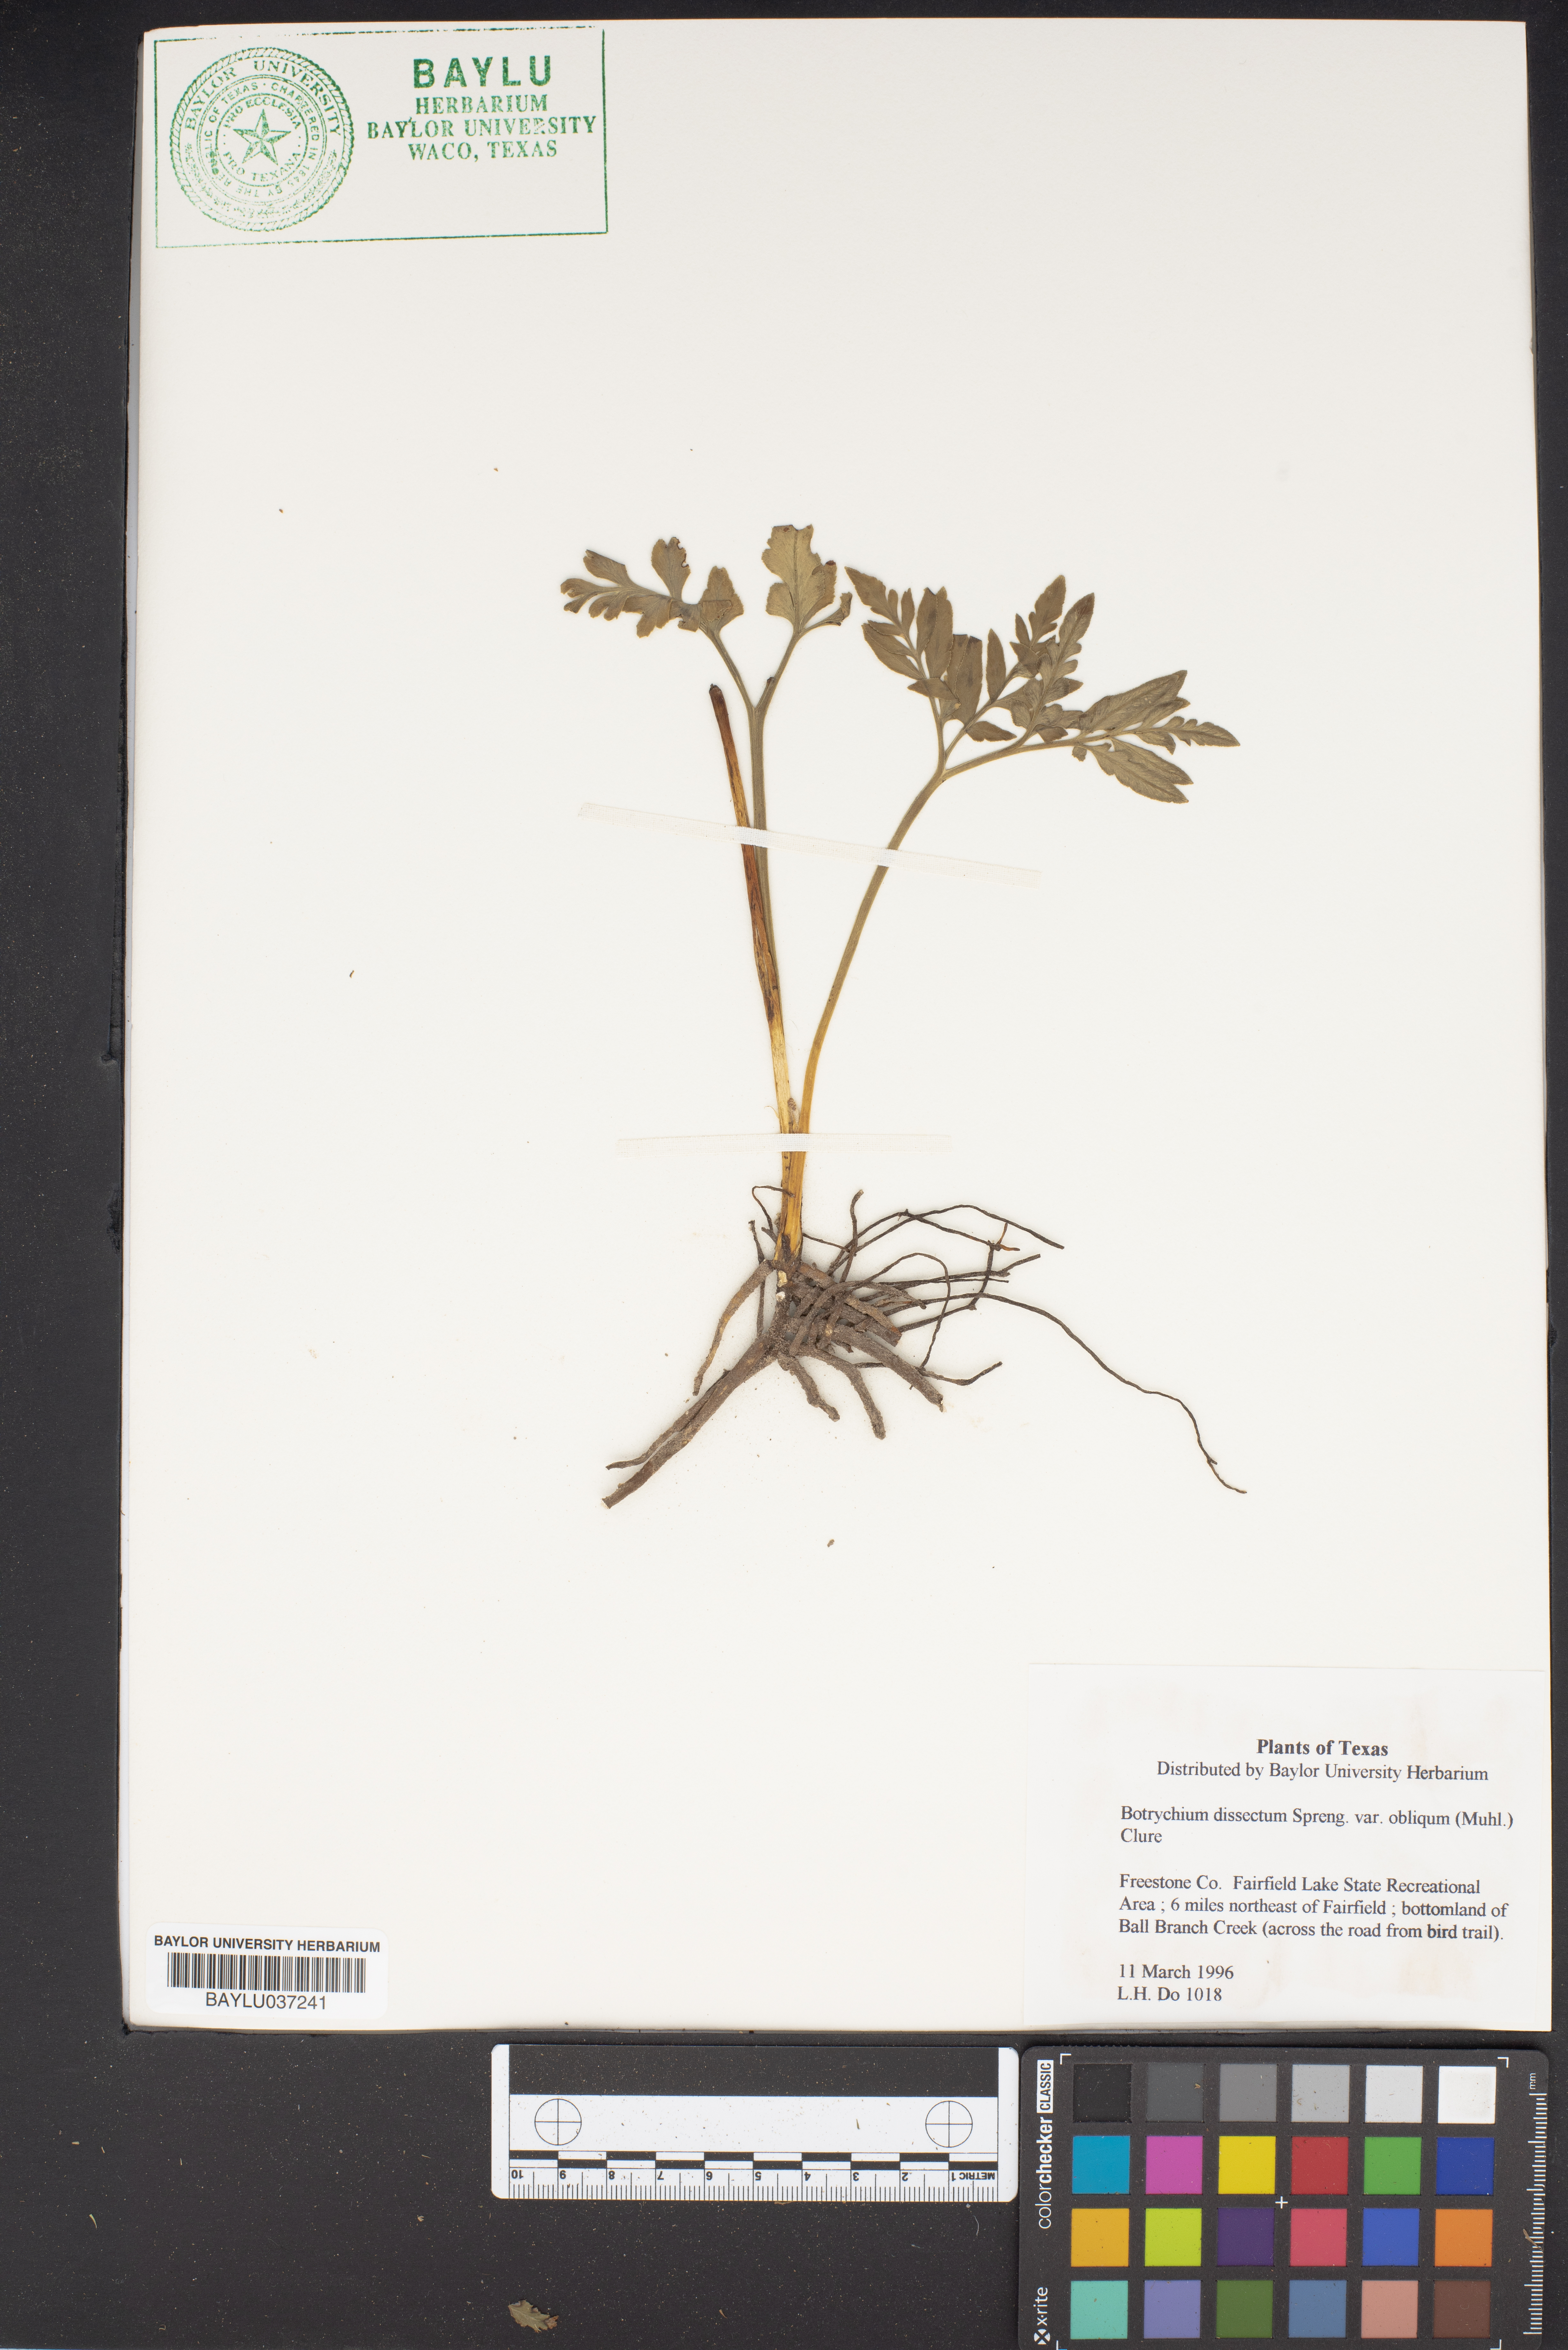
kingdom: Plantae
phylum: Tracheophyta
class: Polypodiopsida
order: Ophioglossales
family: Ophioglossaceae
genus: Sceptridium
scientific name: Sceptridium dissectum
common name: Cut-leaved grapefern
